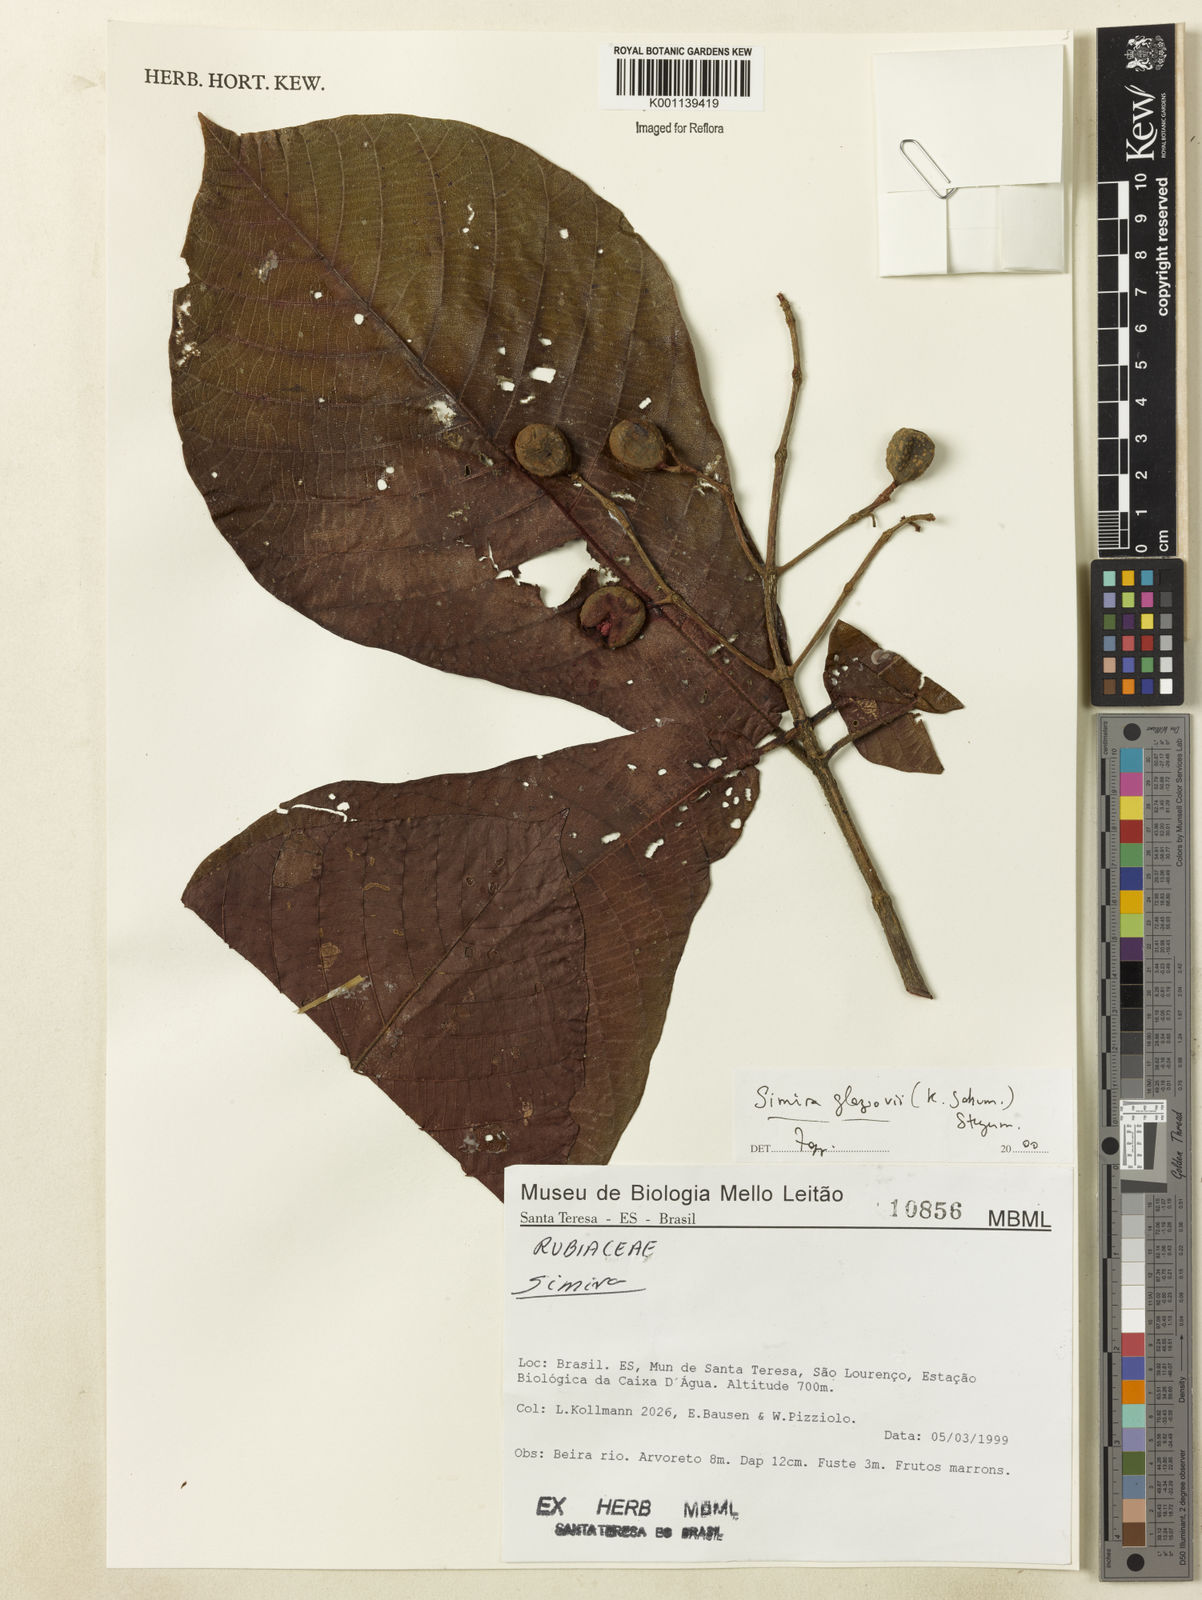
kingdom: Plantae
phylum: Tracheophyta
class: Magnoliopsida
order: Gentianales
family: Rubiaceae
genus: Simira
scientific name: Simira alba
